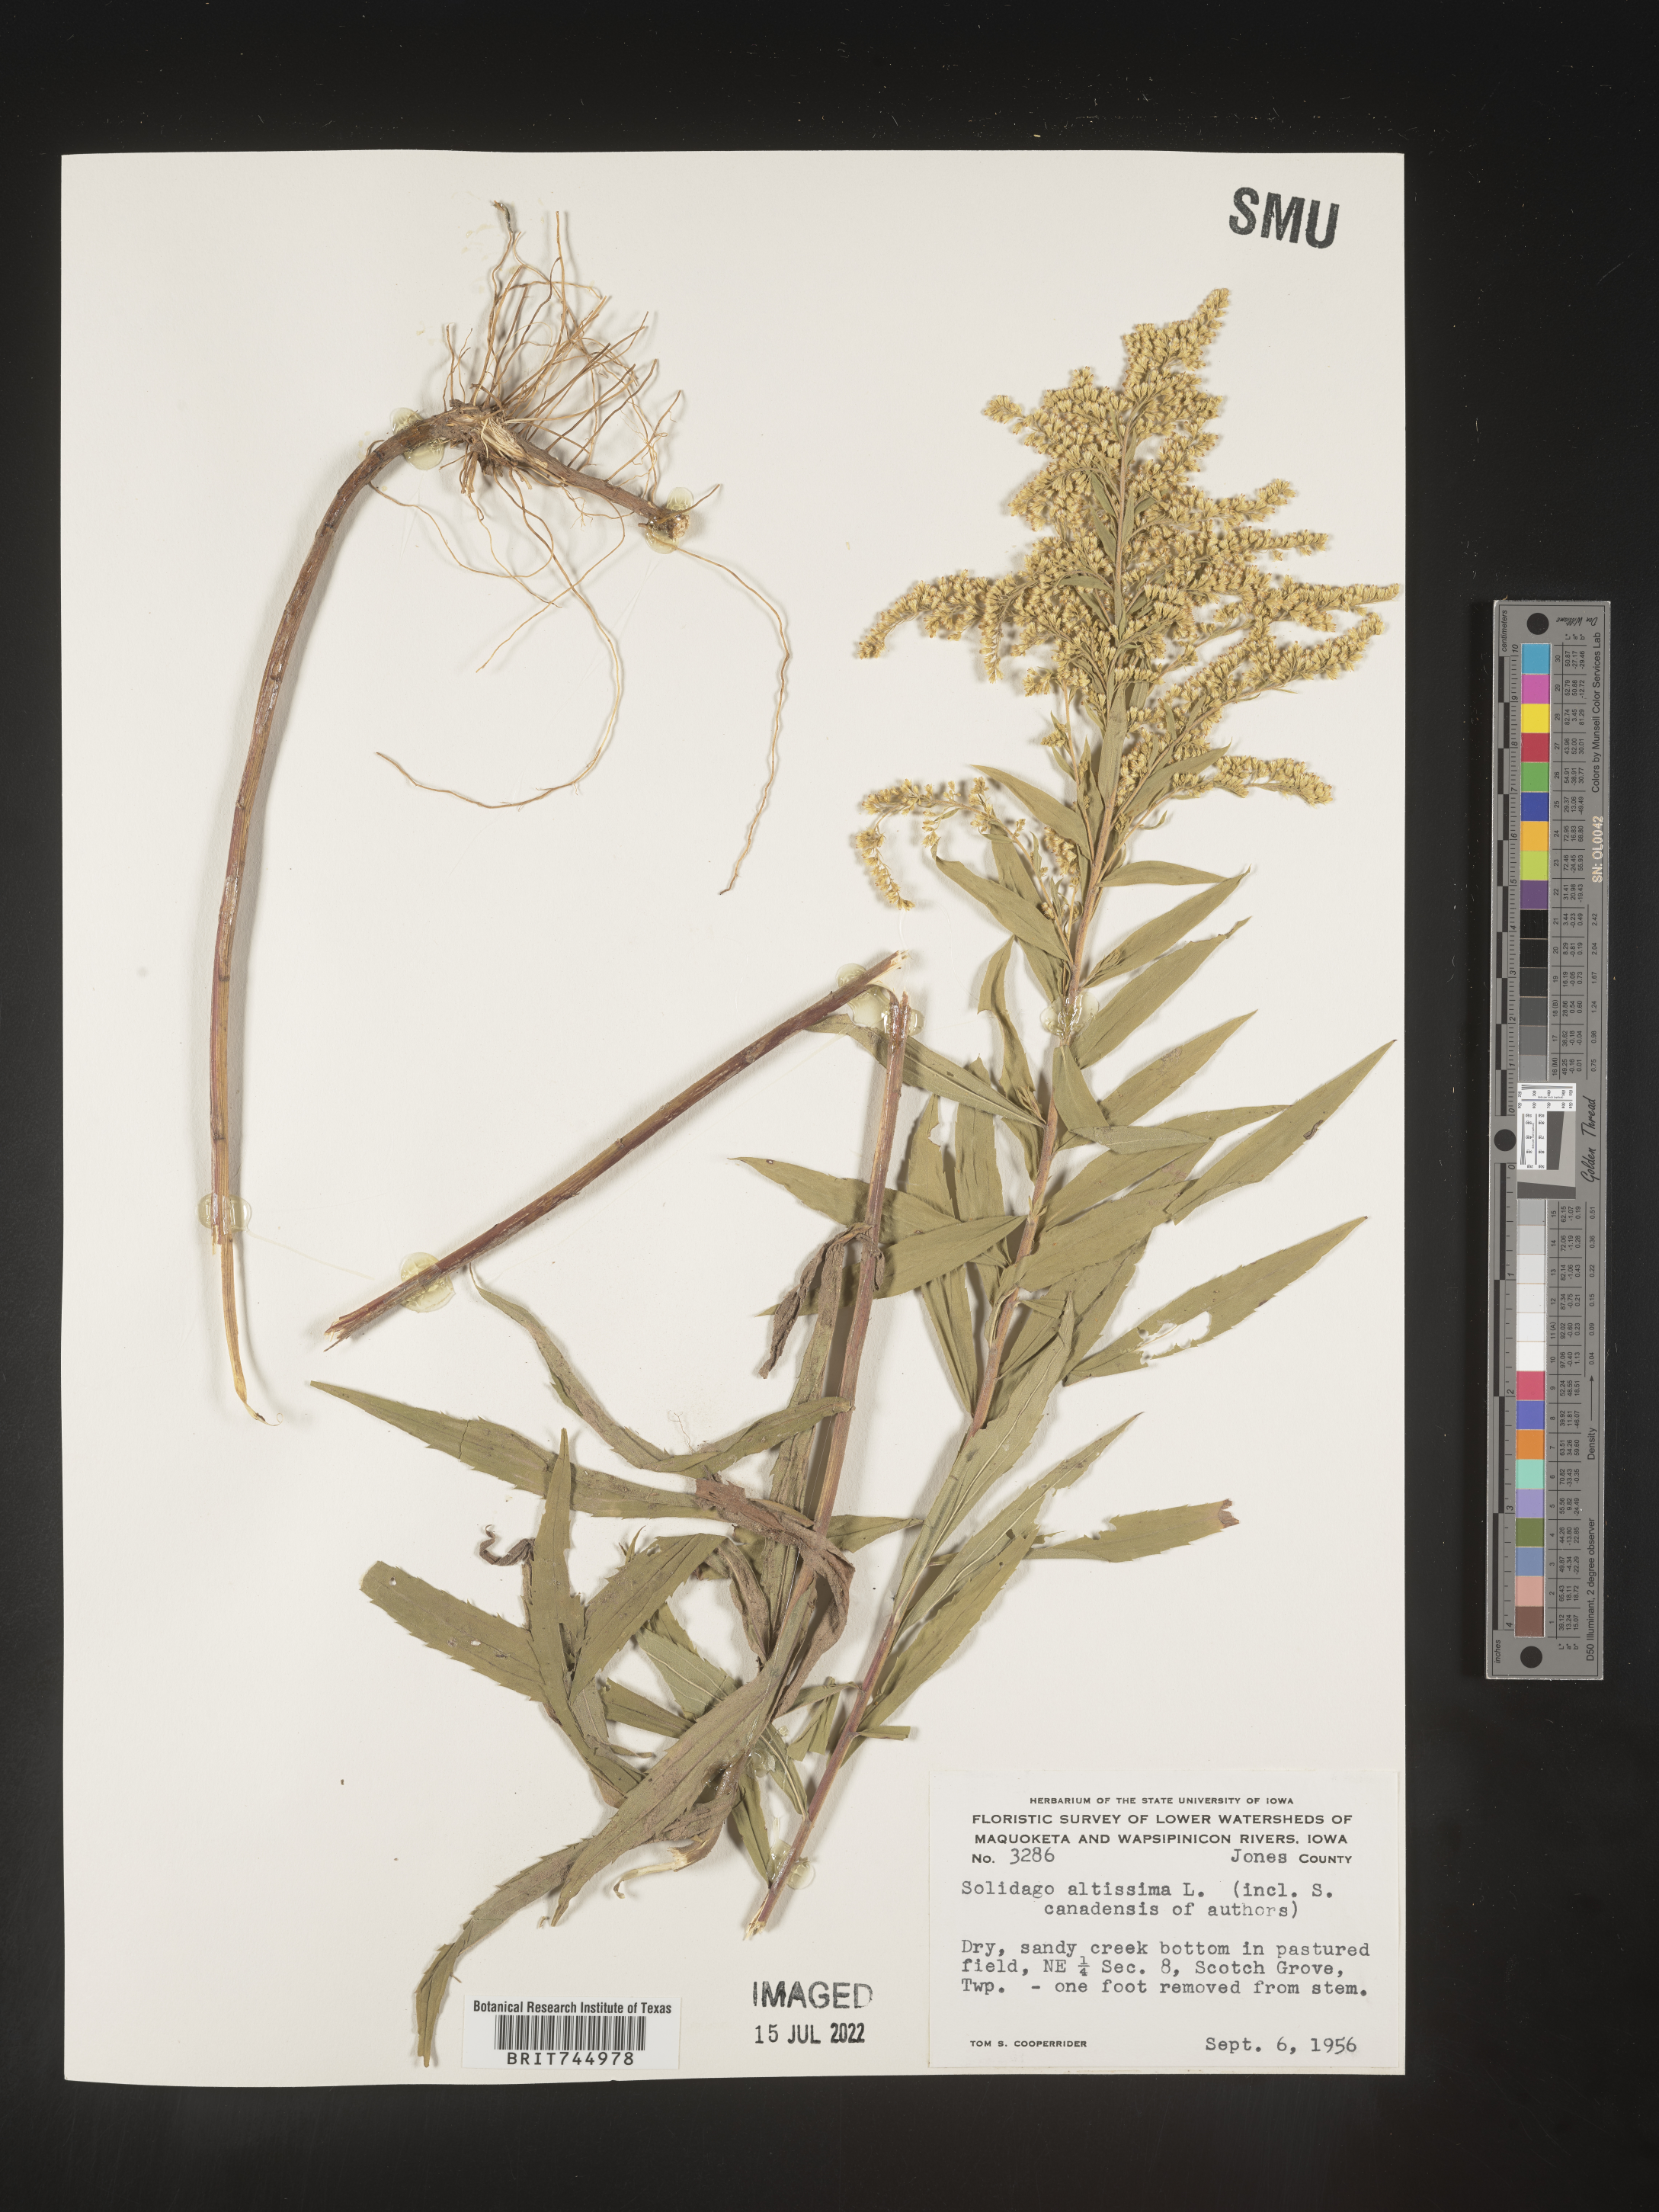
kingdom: Plantae
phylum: Tracheophyta
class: Magnoliopsida
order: Asterales
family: Asteraceae
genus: Solidago
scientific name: Solidago canadensis
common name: Canada goldenrod
